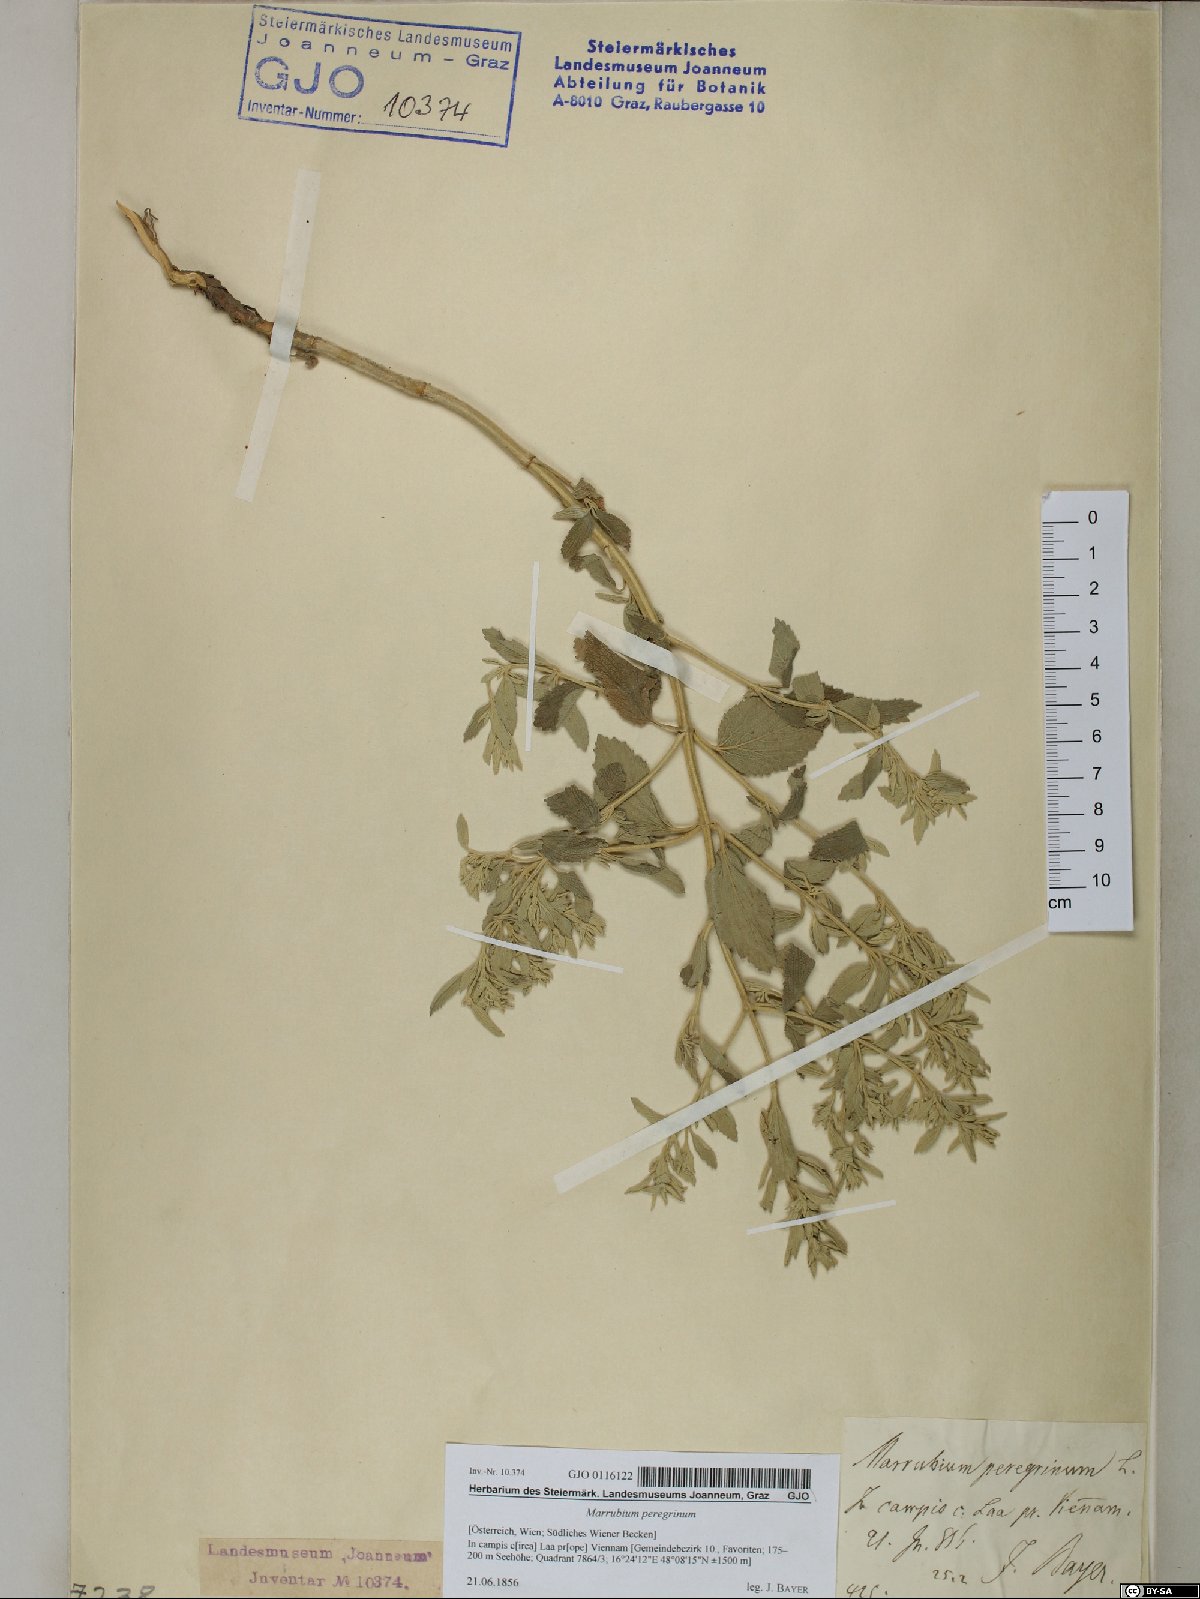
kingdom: Plantae
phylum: Tracheophyta
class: Magnoliopsida
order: Lamiales
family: Lamiaceae
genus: Marrubium
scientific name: Marrubium peregrinum
